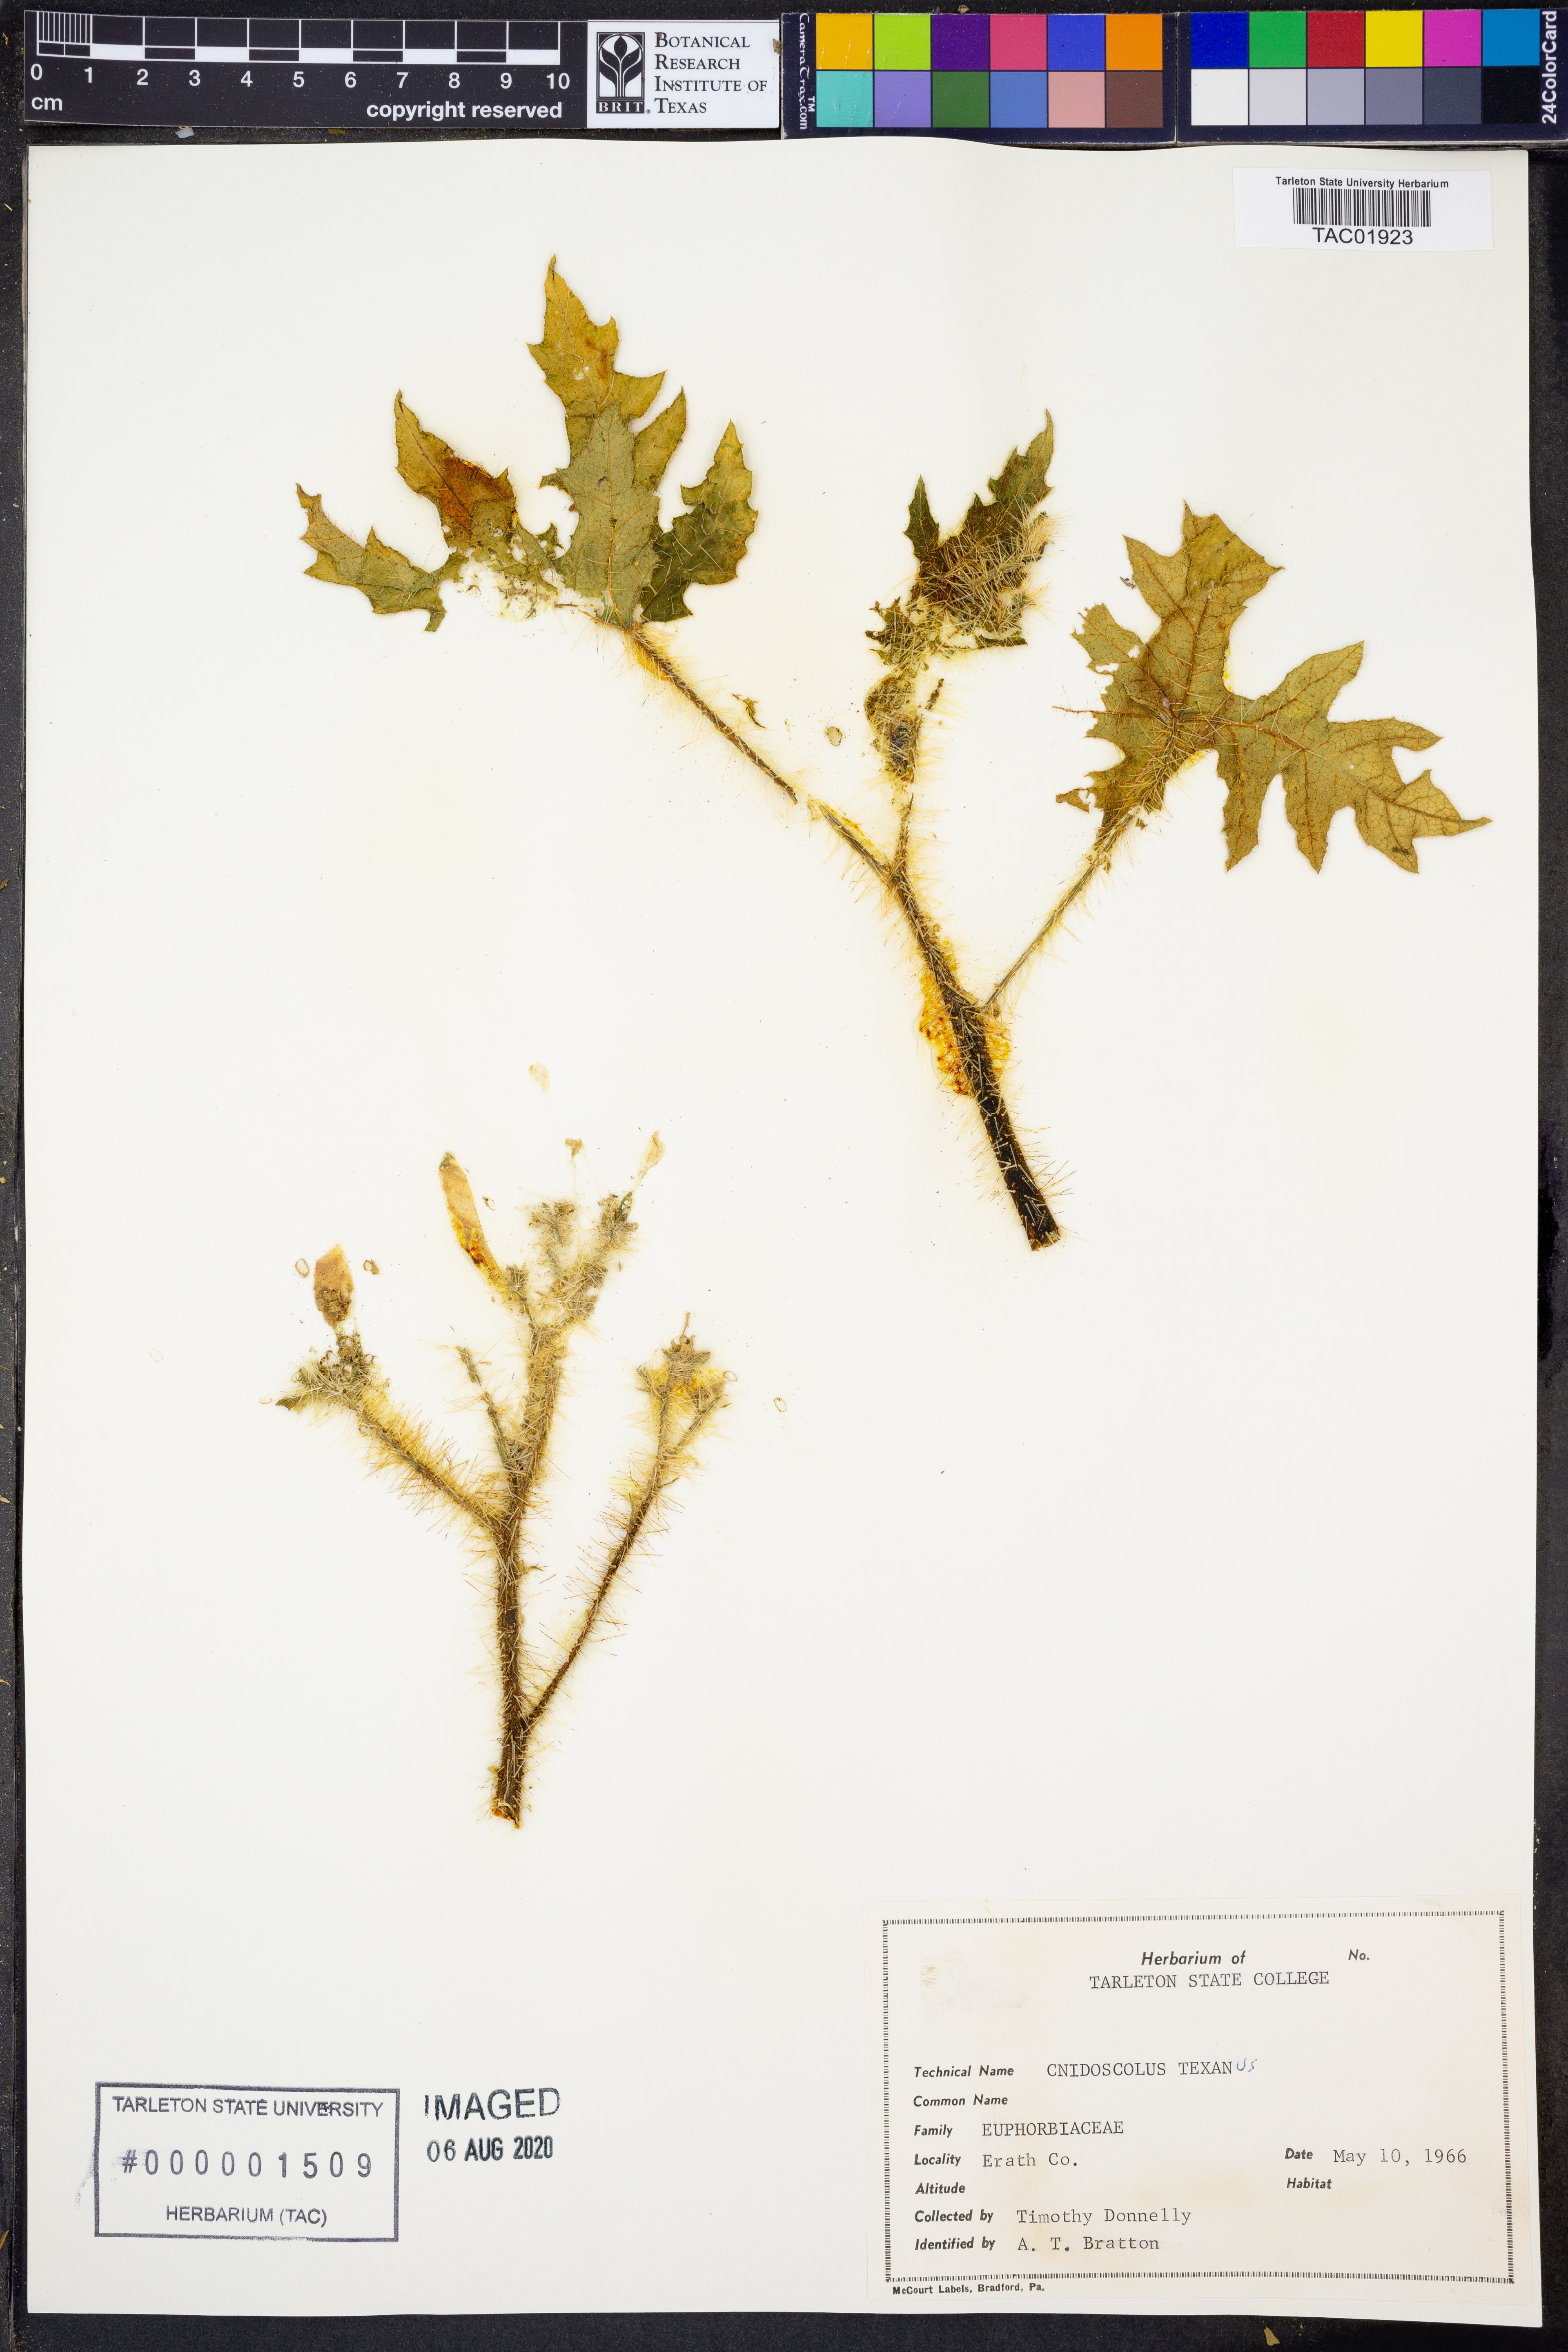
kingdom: Plantae
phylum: Tracheophyta
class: Magnoliopsida
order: Malpighiales
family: Euphorbiaceae
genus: Cnidoscolus
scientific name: Cnidoscolus texanus
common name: Texas bull-nettle
